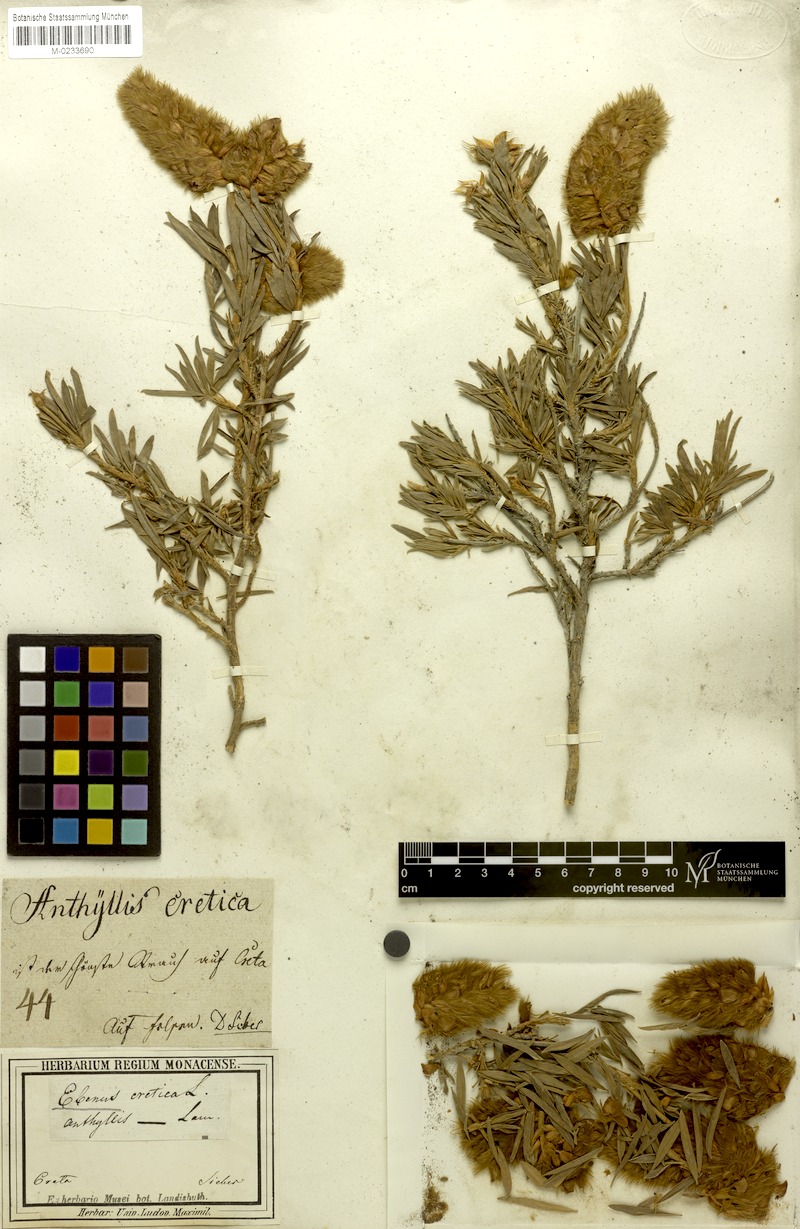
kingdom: Plantae
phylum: Tracheophyta
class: Magnoliopsida
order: Fabales
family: Fabaceae
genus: Ebenus
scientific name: Ebenus cretica
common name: Cretan silver bush
